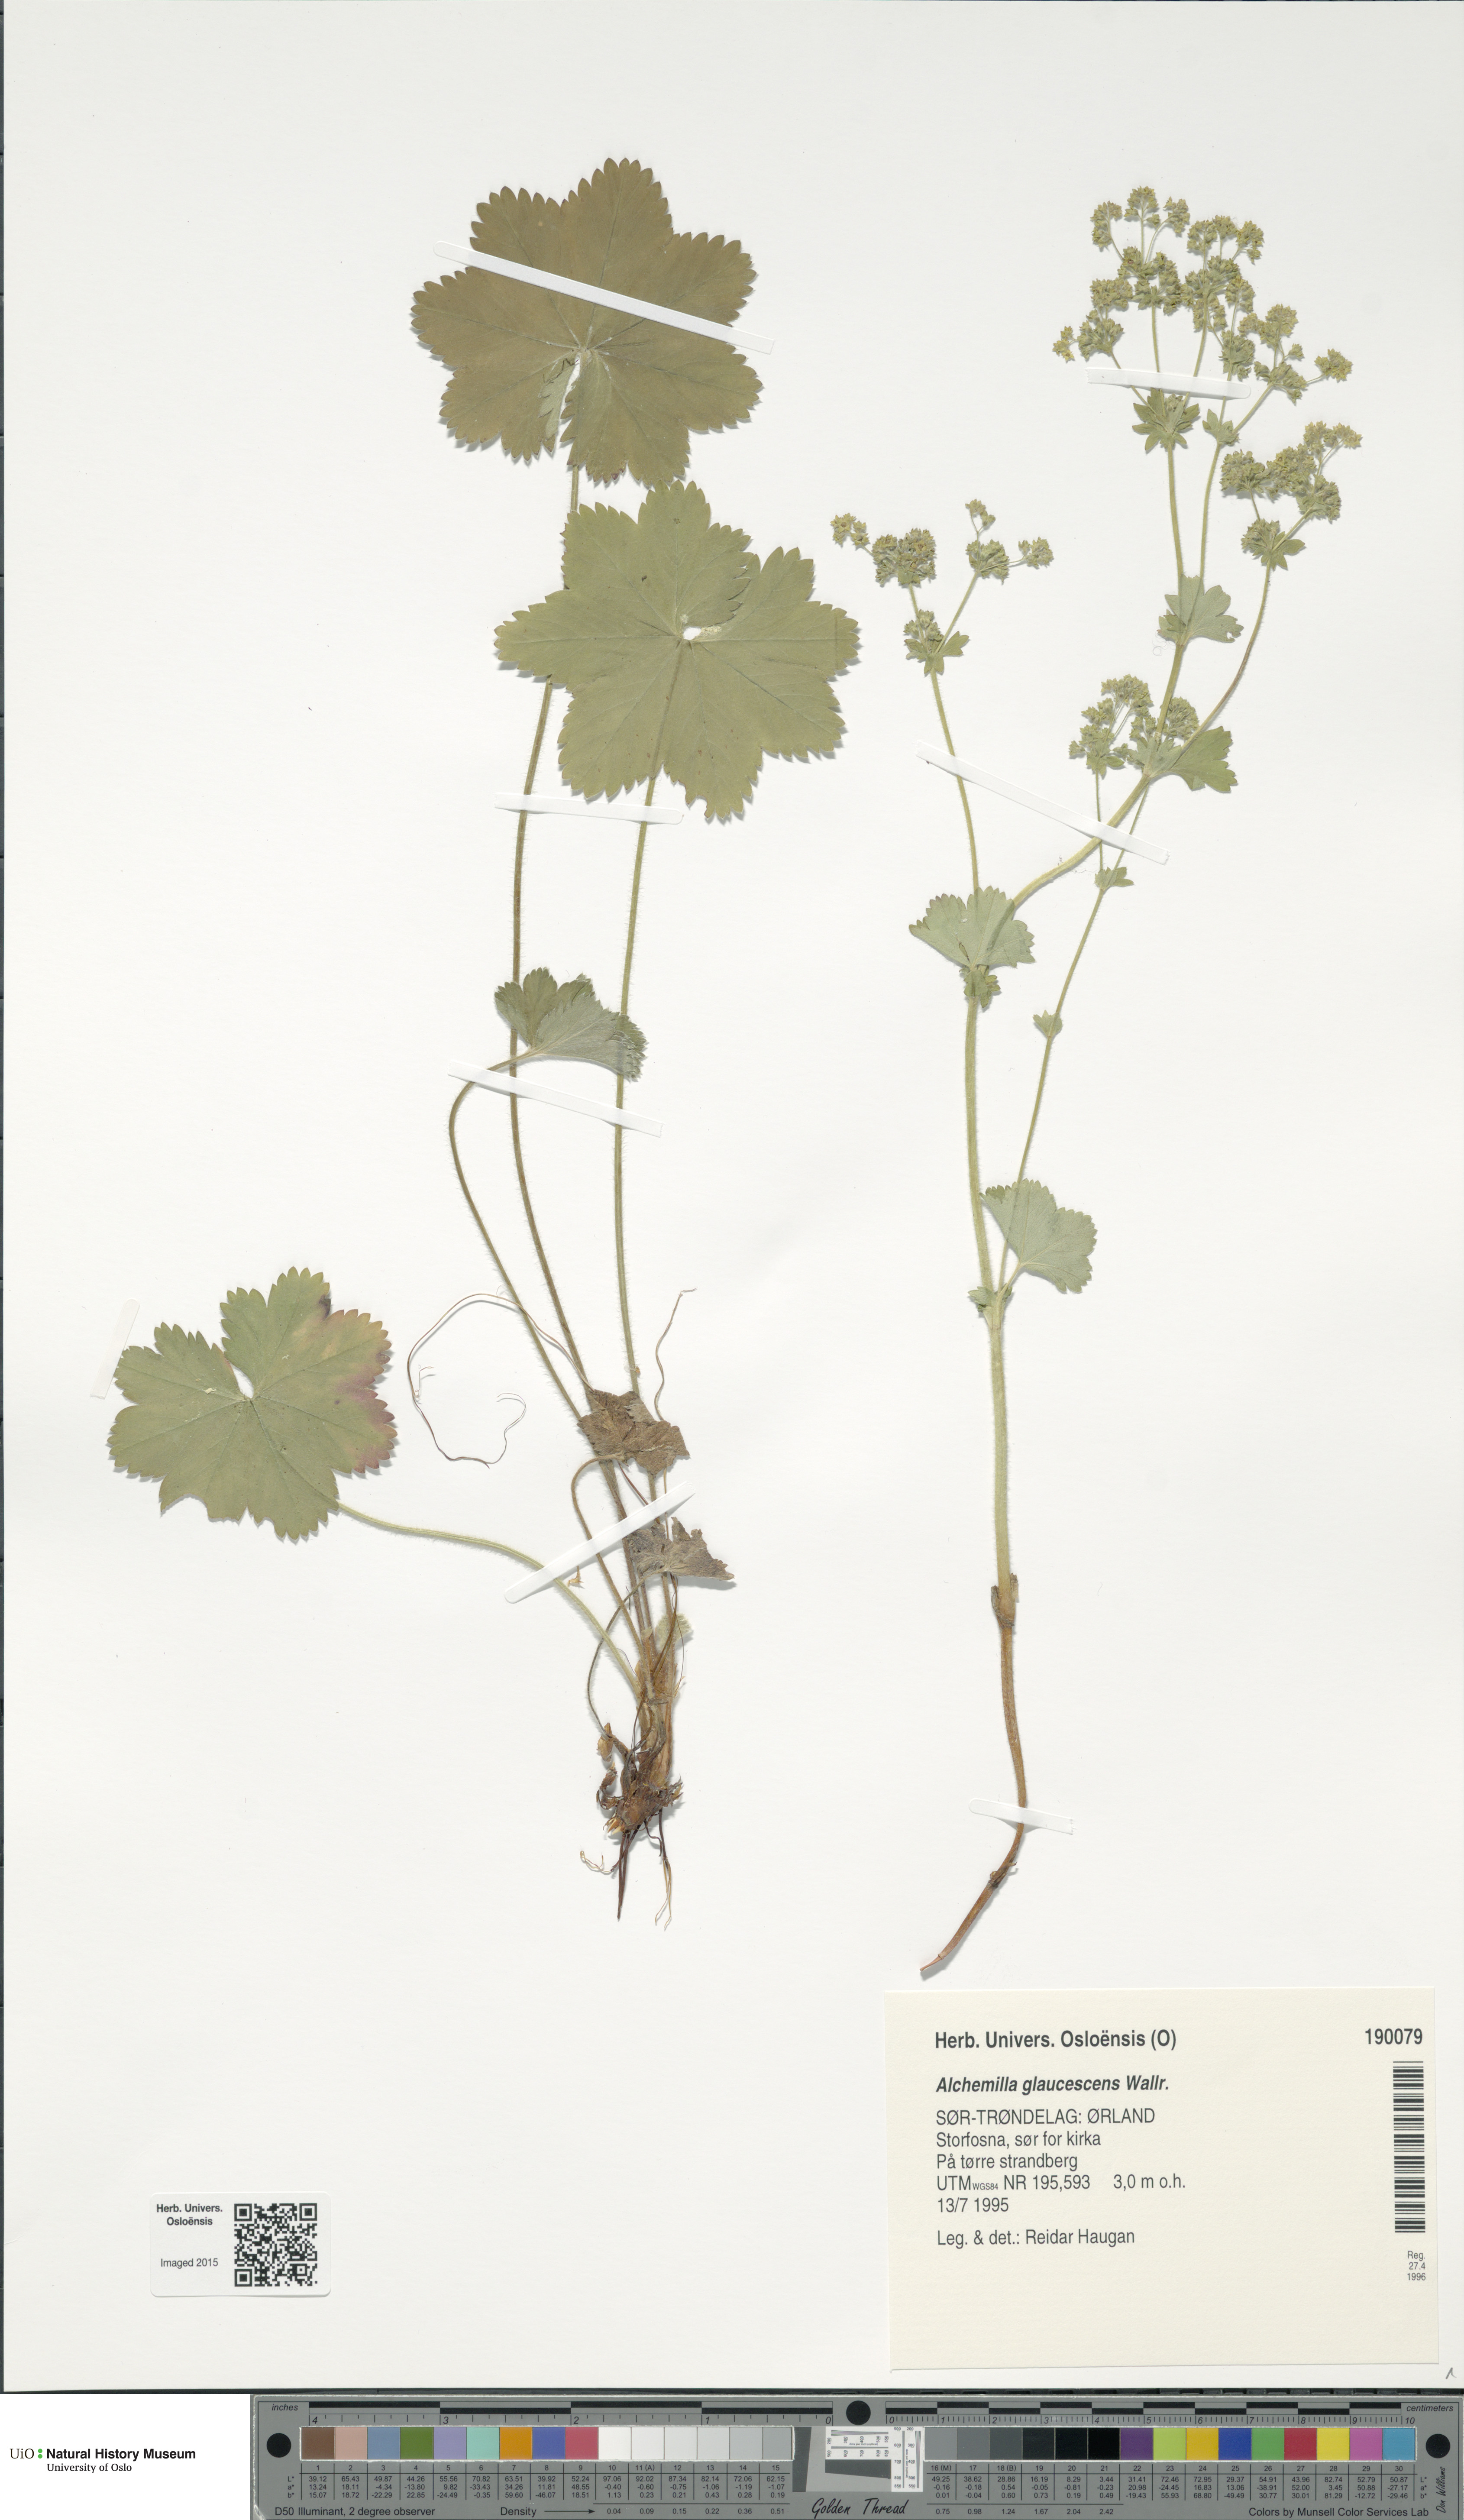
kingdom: Plantae
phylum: Tracheophyta
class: Magnoliopsida
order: Rosales
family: Rosaceae
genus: Alchemilla
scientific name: Alchemilla glaucescens
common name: Silky lady's mantle
